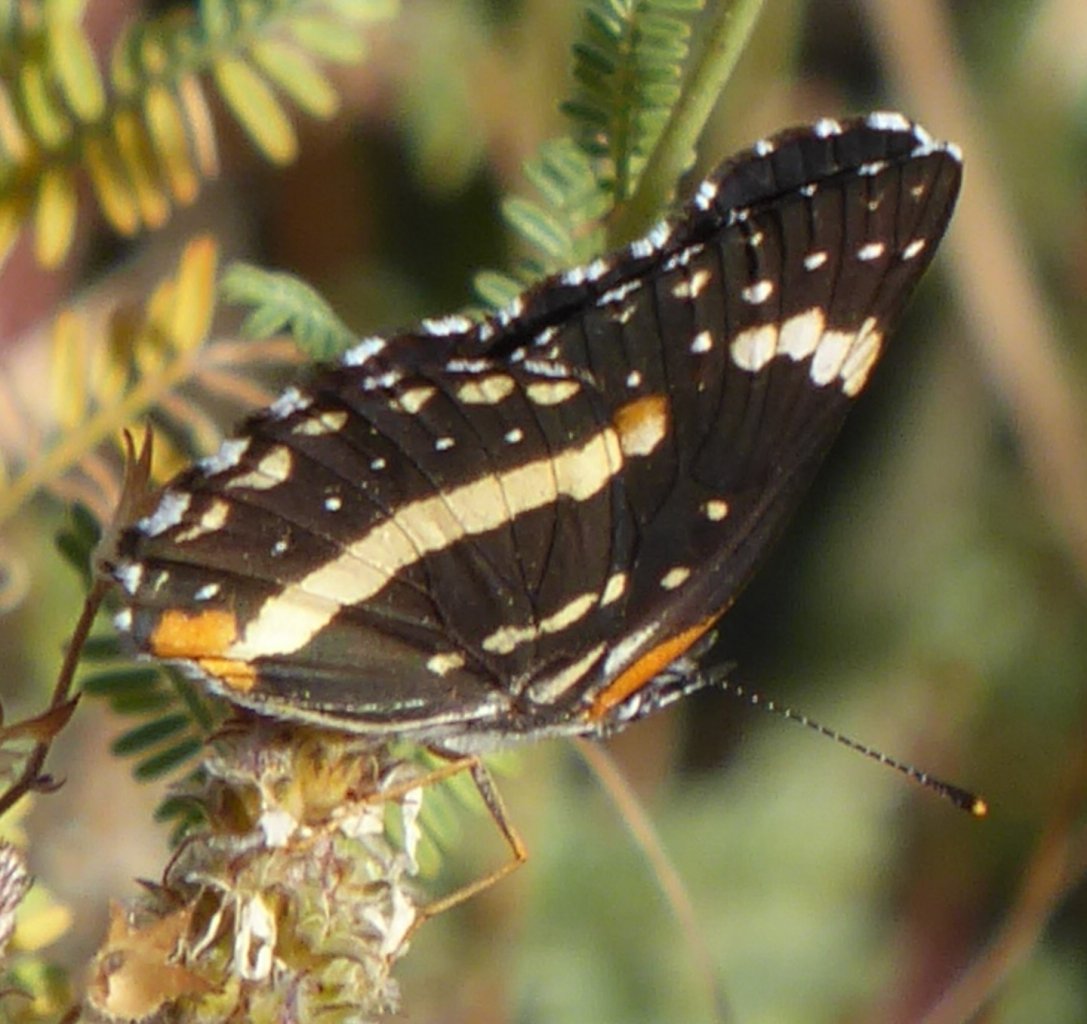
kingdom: Animalia
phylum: Arthropoda
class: Insecta
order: Lepidoptera
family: Nymphalidae
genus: Chlosyne
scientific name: Chlosyne lacinia
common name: Bordered Patch
